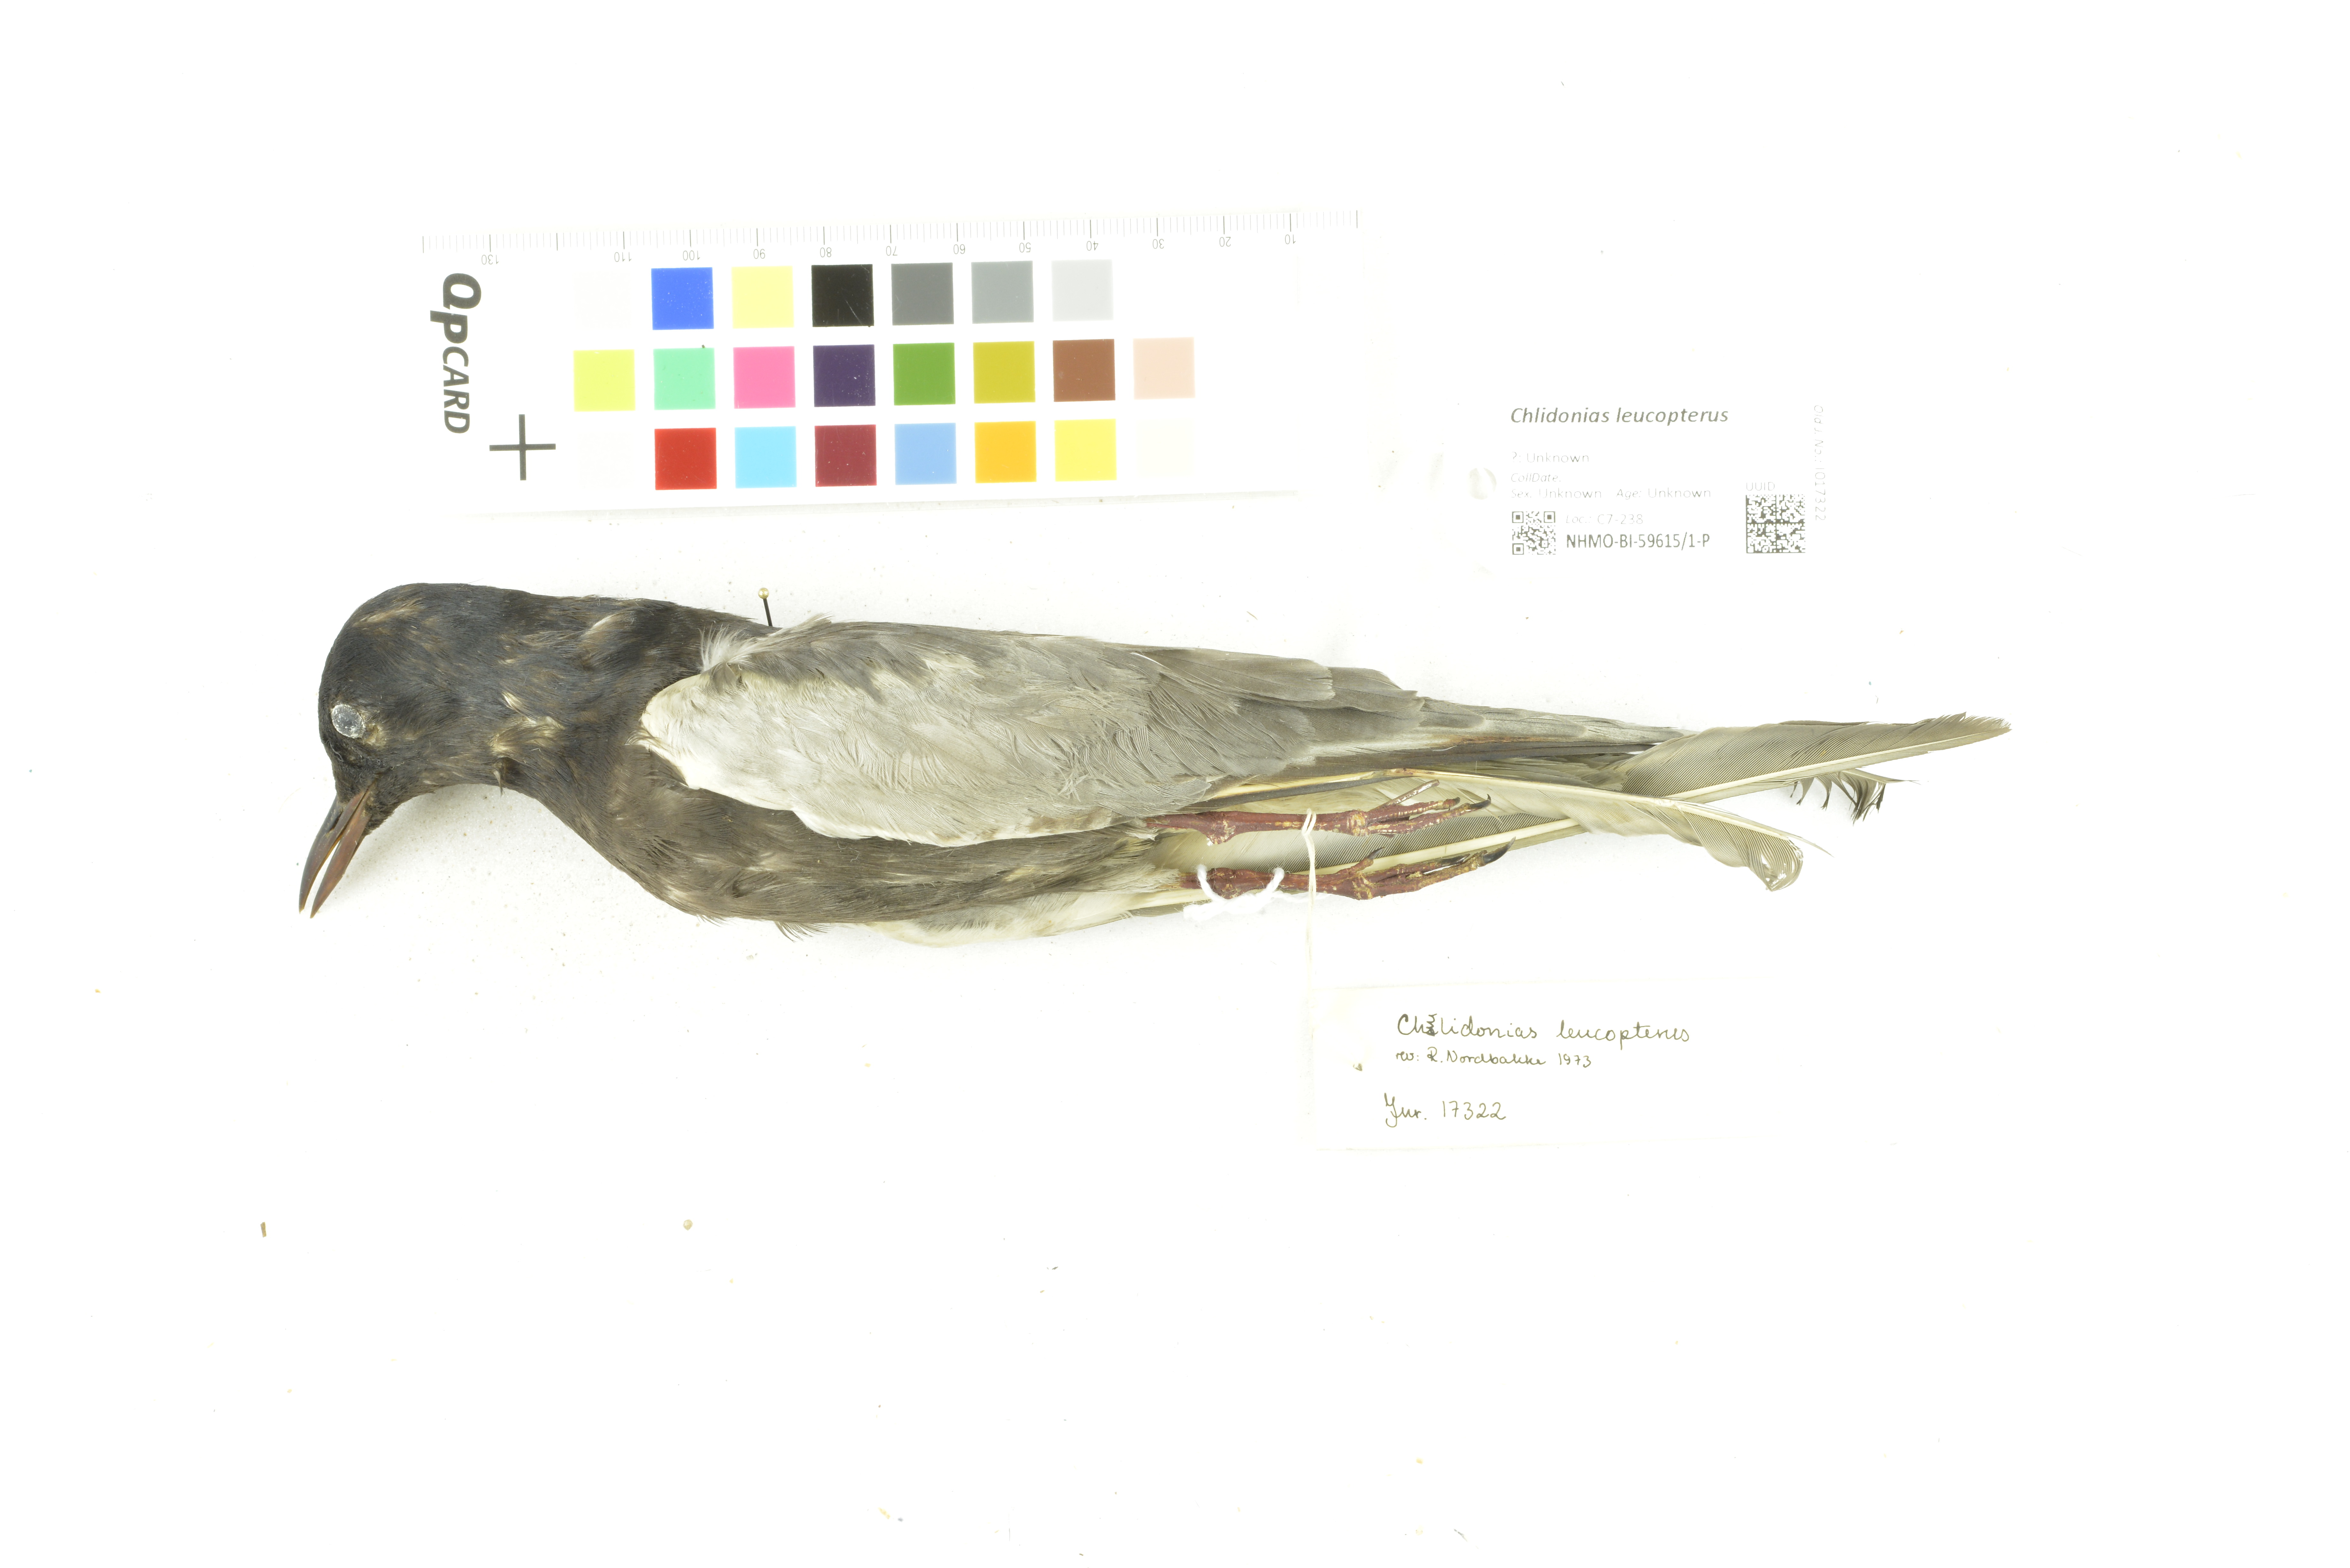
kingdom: Animalia
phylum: Chordata
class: Aves
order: Charadriiformes
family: Laridae
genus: Chlidonias
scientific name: Chlidonias leucopterus
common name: White-winged tern
